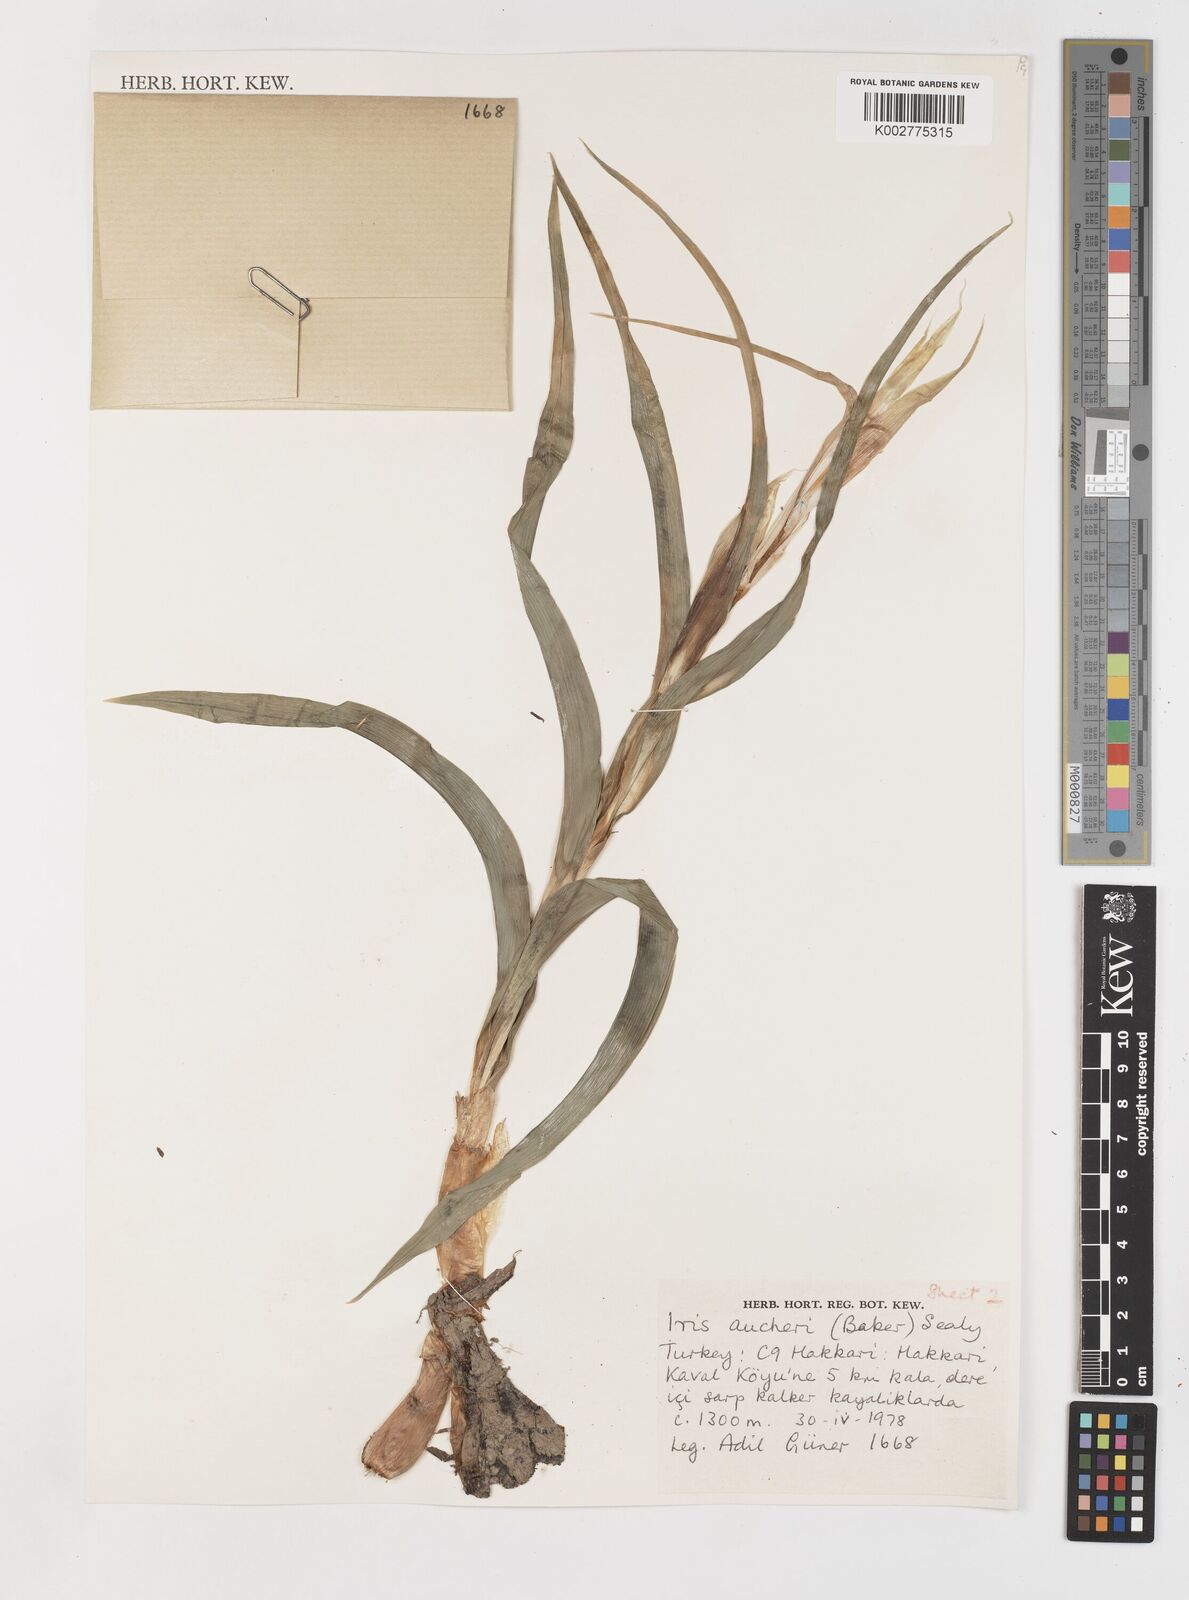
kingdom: Plantae
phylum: Tracheophyta
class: Liliopsida
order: Asparagales
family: Iridaceae
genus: Iris
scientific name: Iris aucheri
